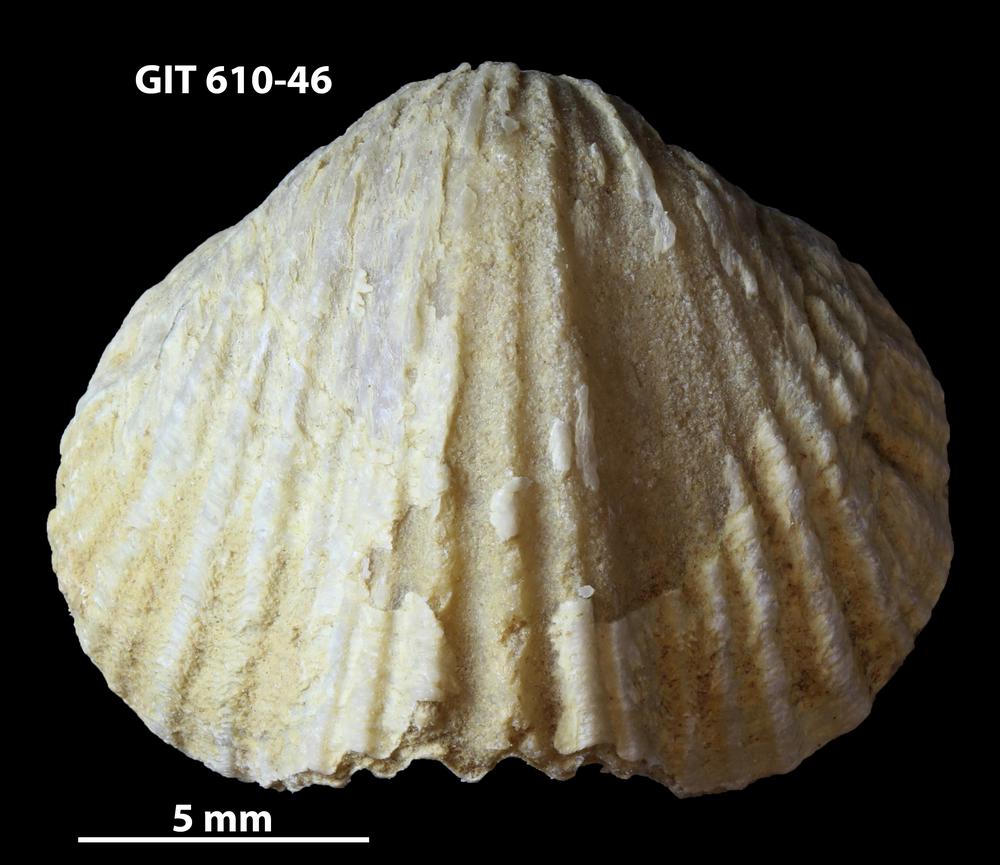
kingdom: Animalia
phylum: Brachiopoda
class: Rhynchonellata
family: Triplesiidae
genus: Cliftonia
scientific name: Cliftonia
